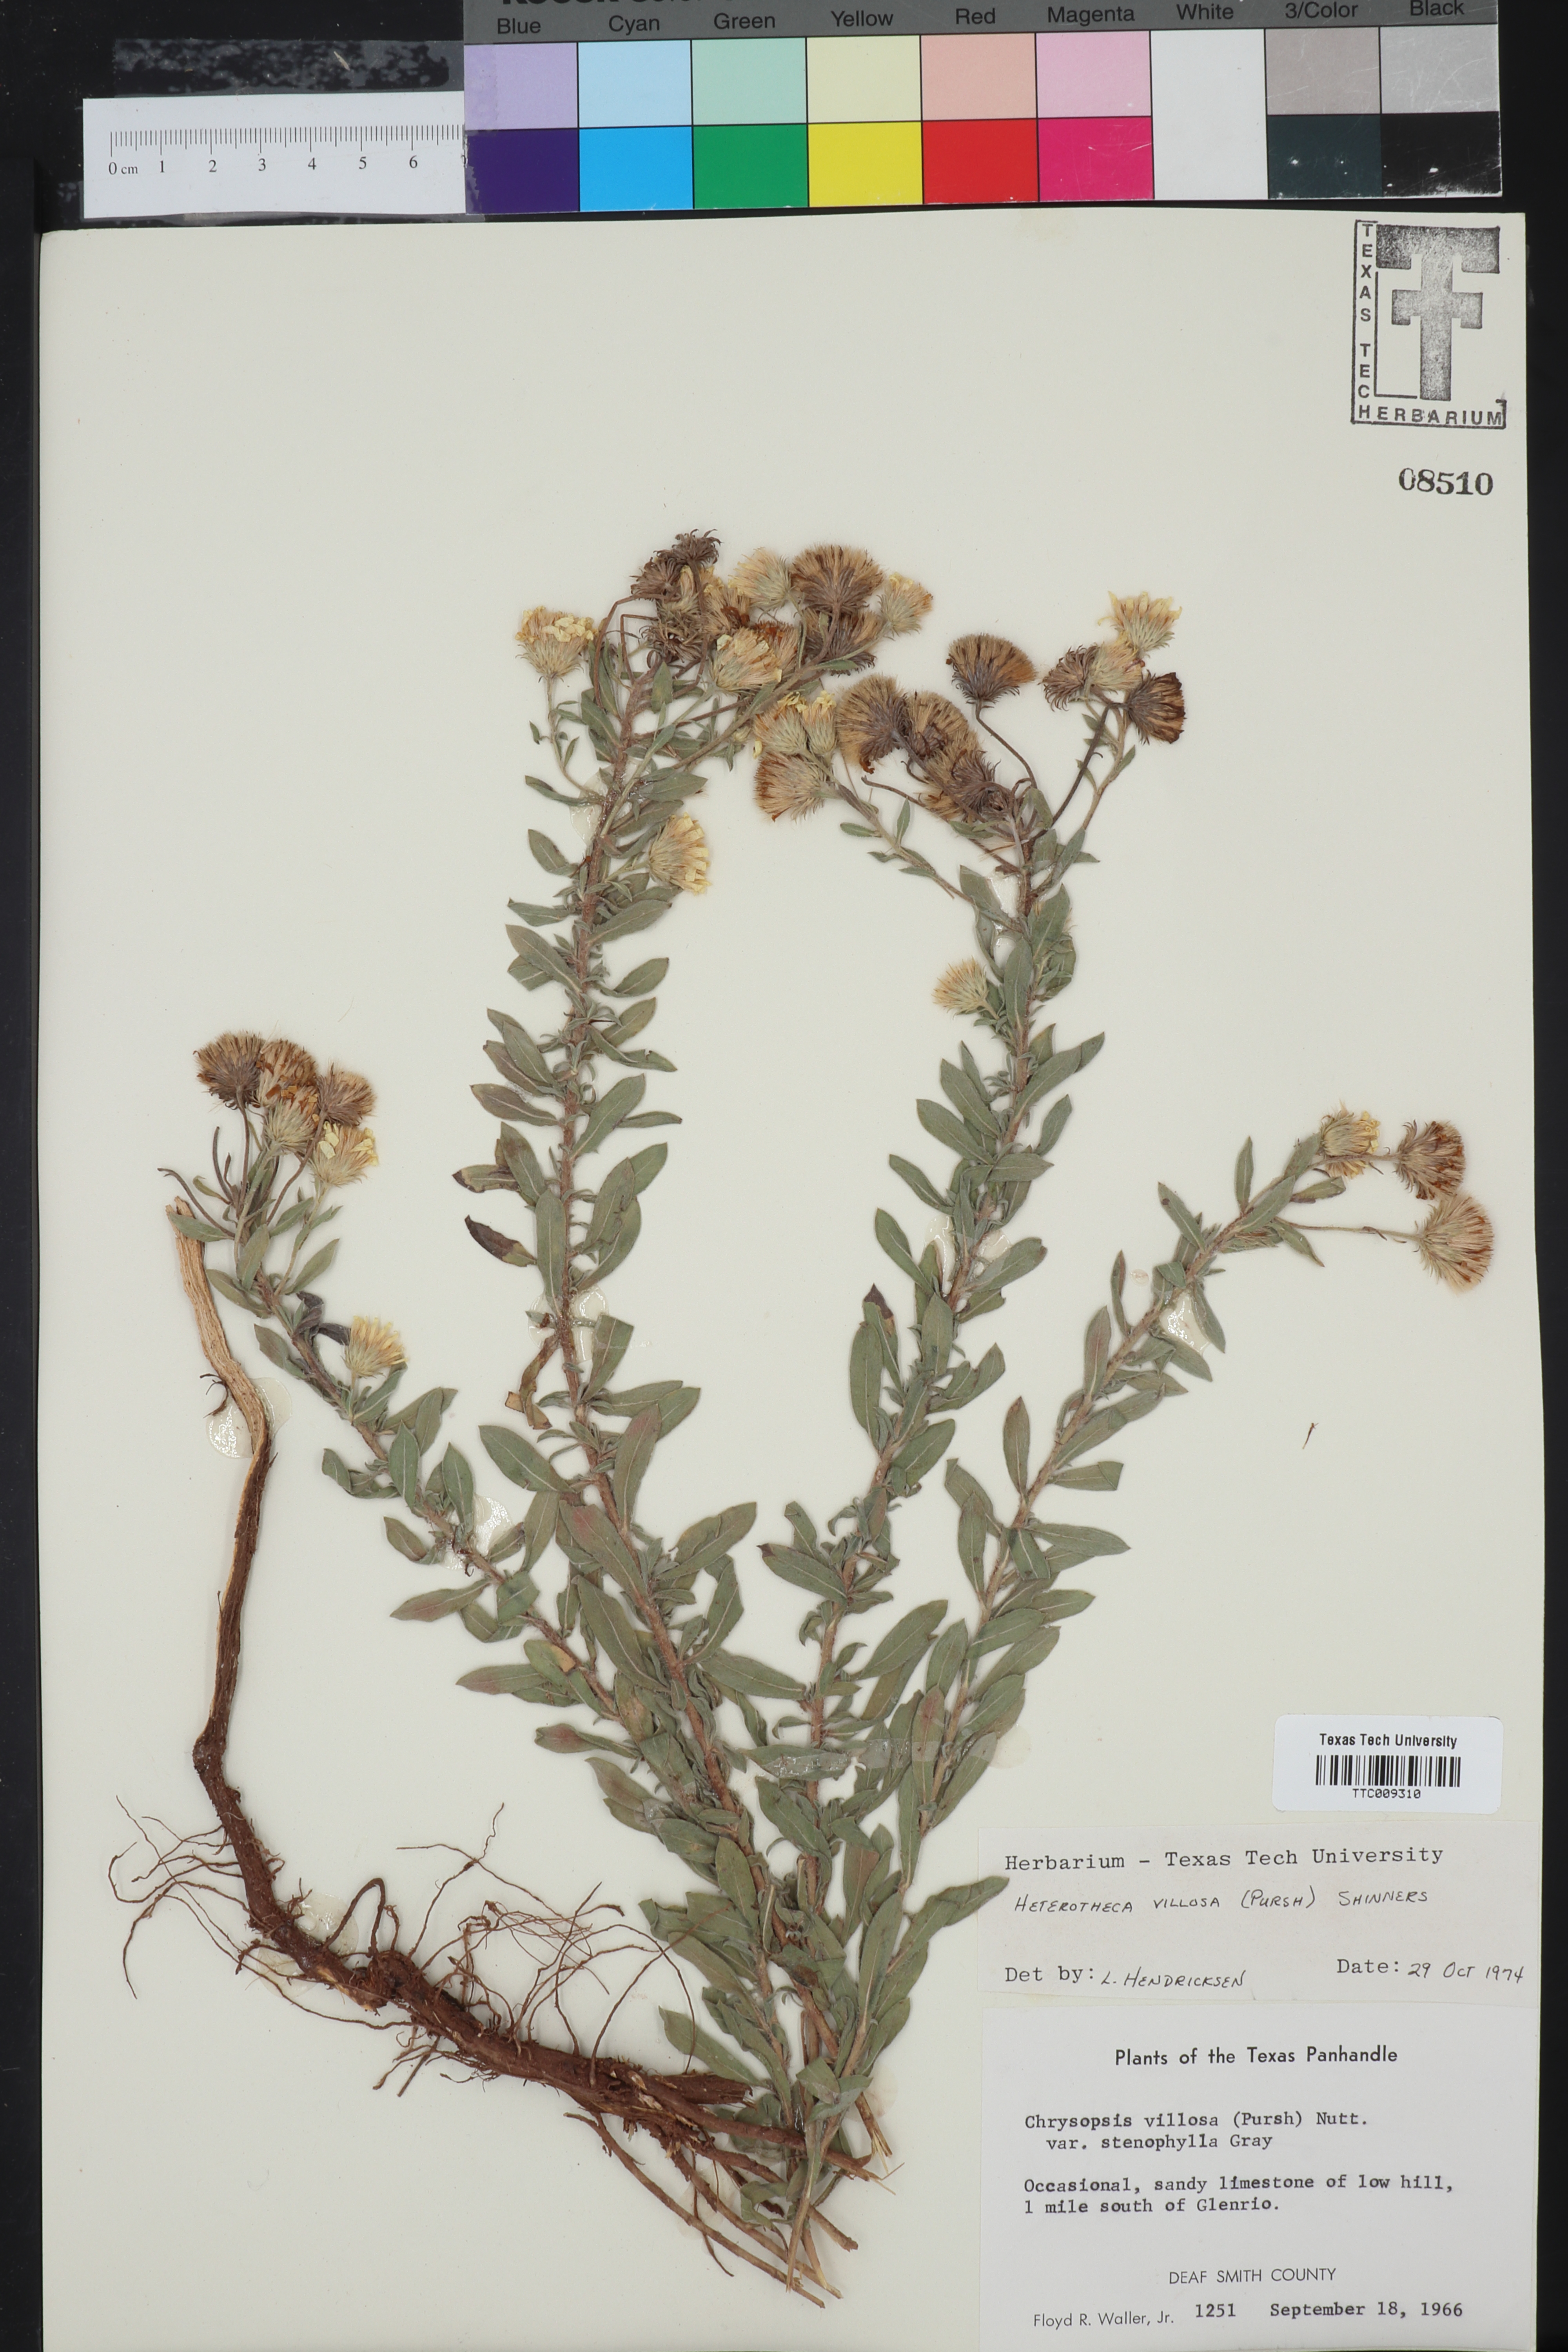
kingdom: Plantae
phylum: Tracheophyta
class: Magnoliopsida
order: Asterales
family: Asteraceae
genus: Heterotheca
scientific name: Heterotheca villosa
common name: Hairy false goldenaster
